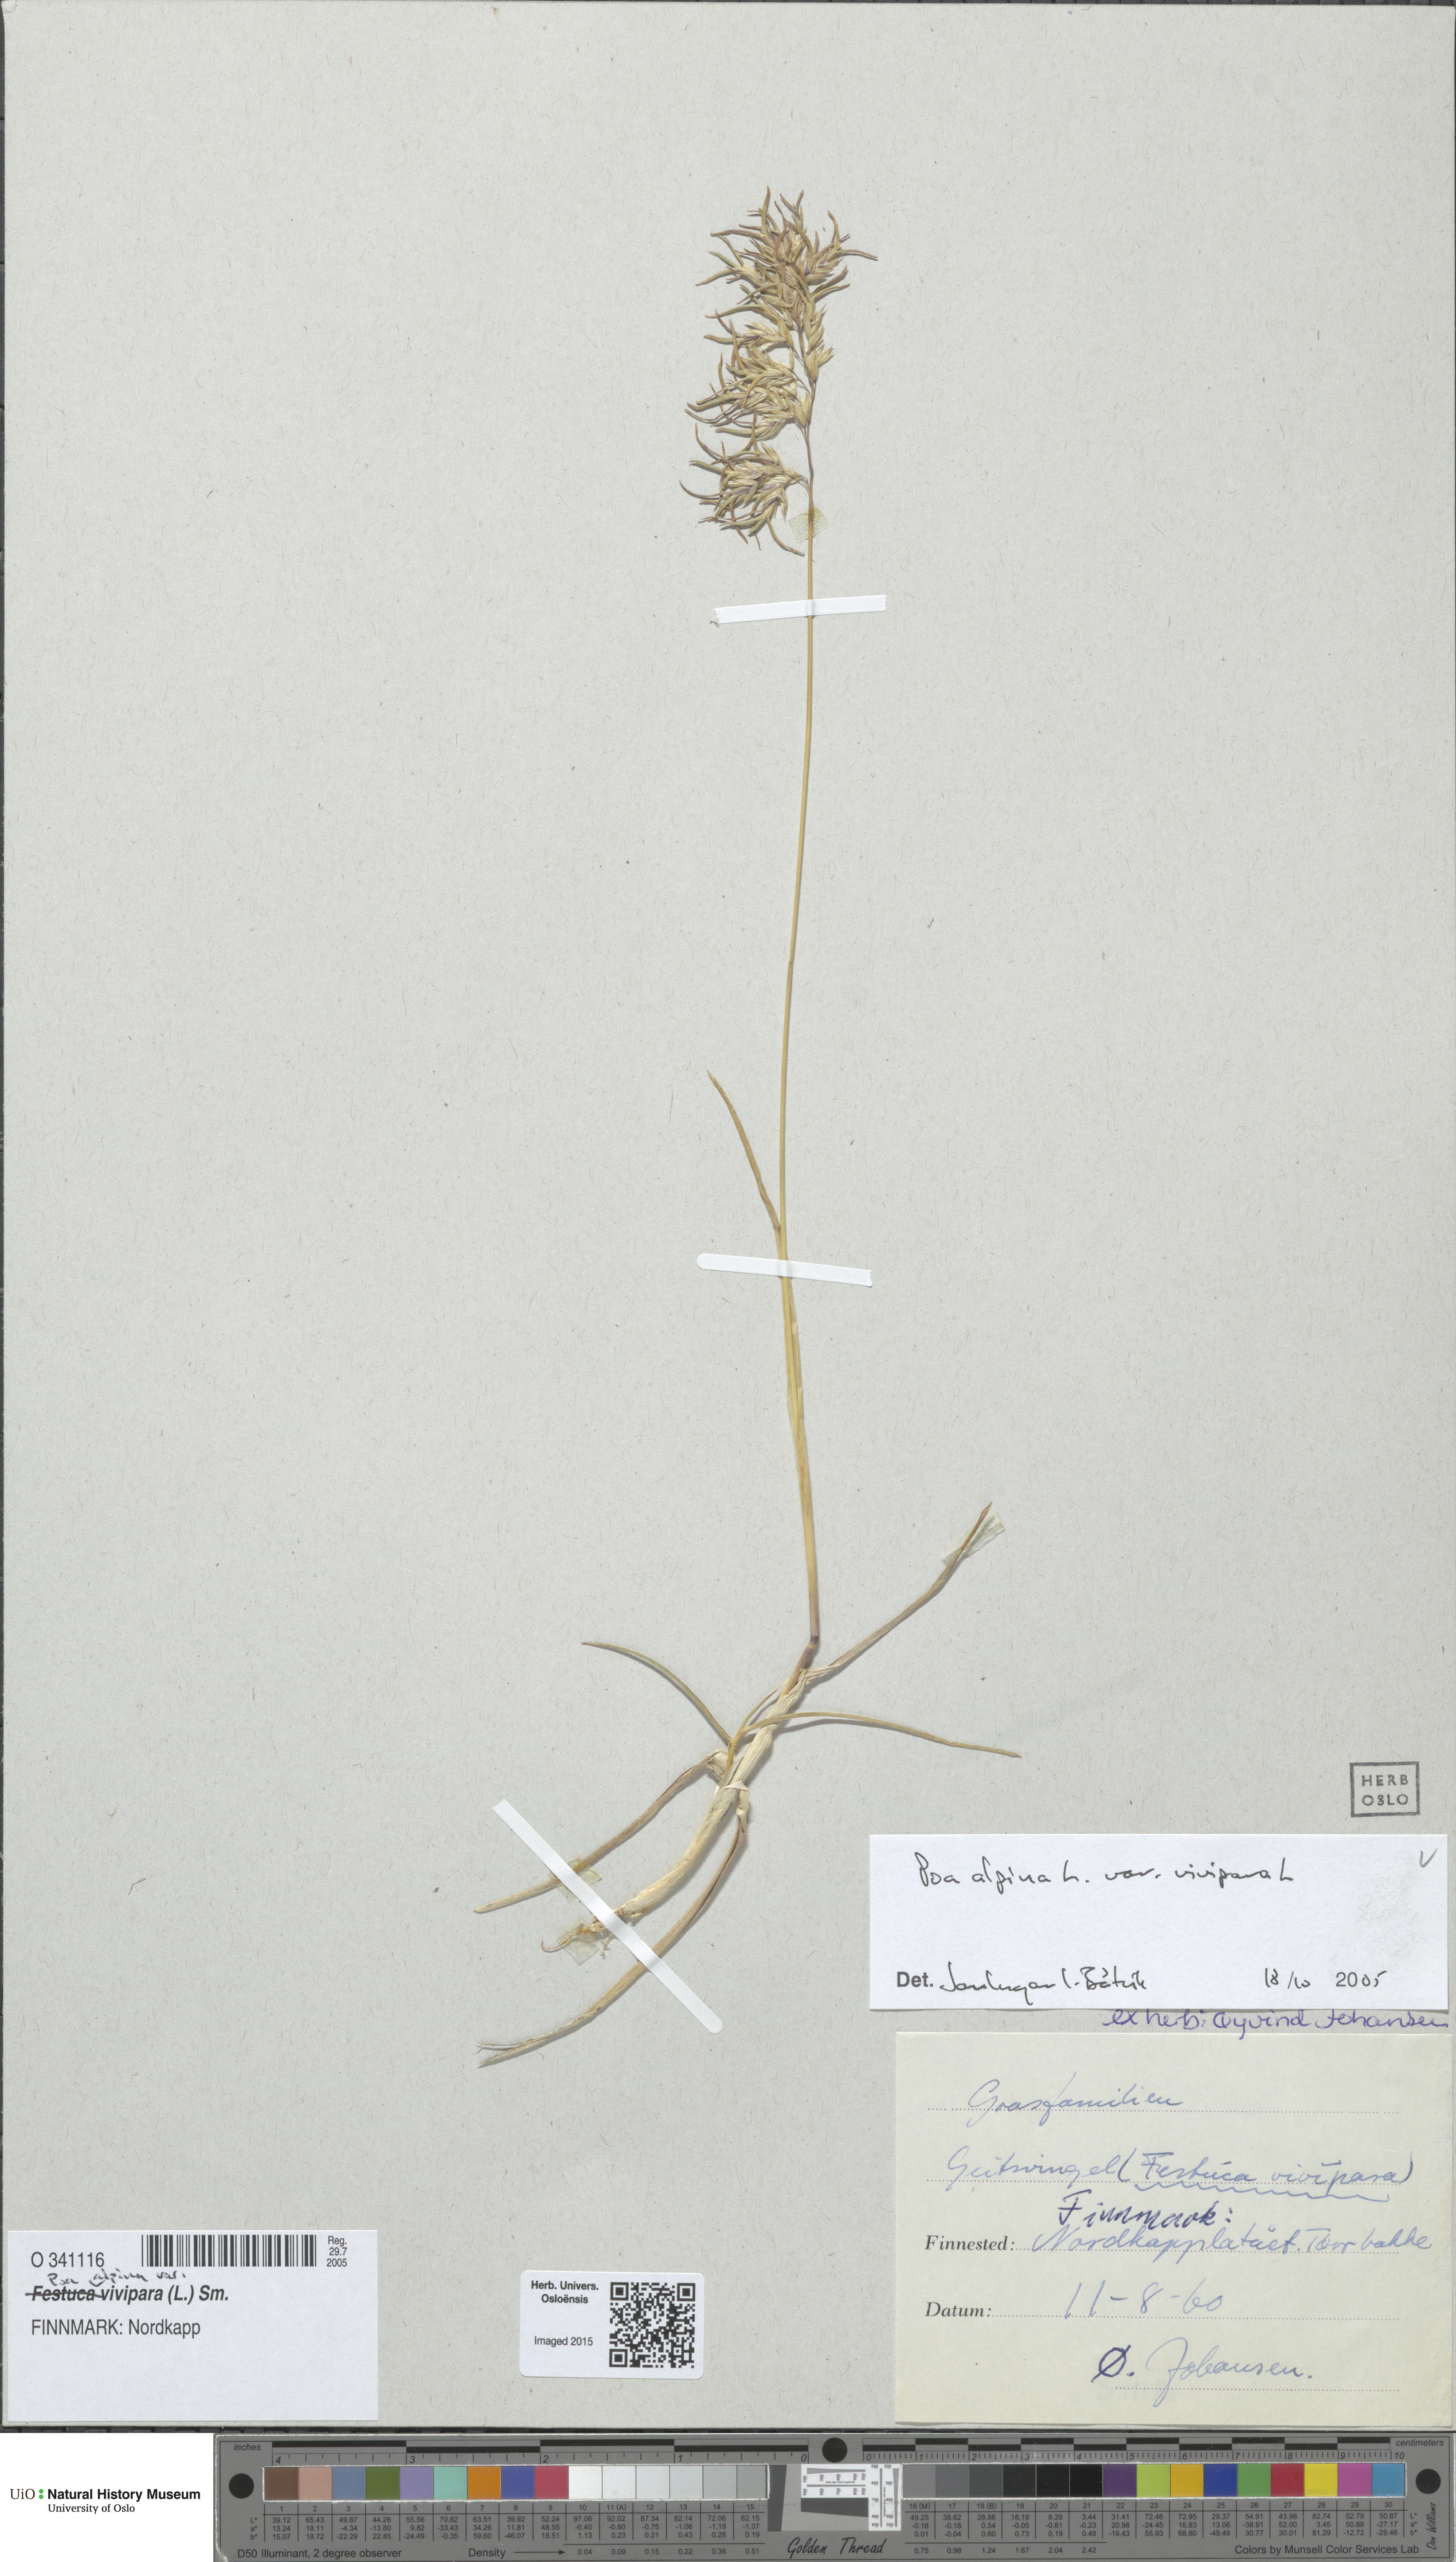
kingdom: Plantae
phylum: Tracheophyta
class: Liliopsida
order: Poales
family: Poaceae
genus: Poa
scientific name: Poa alpina
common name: Alpine bluegrass
